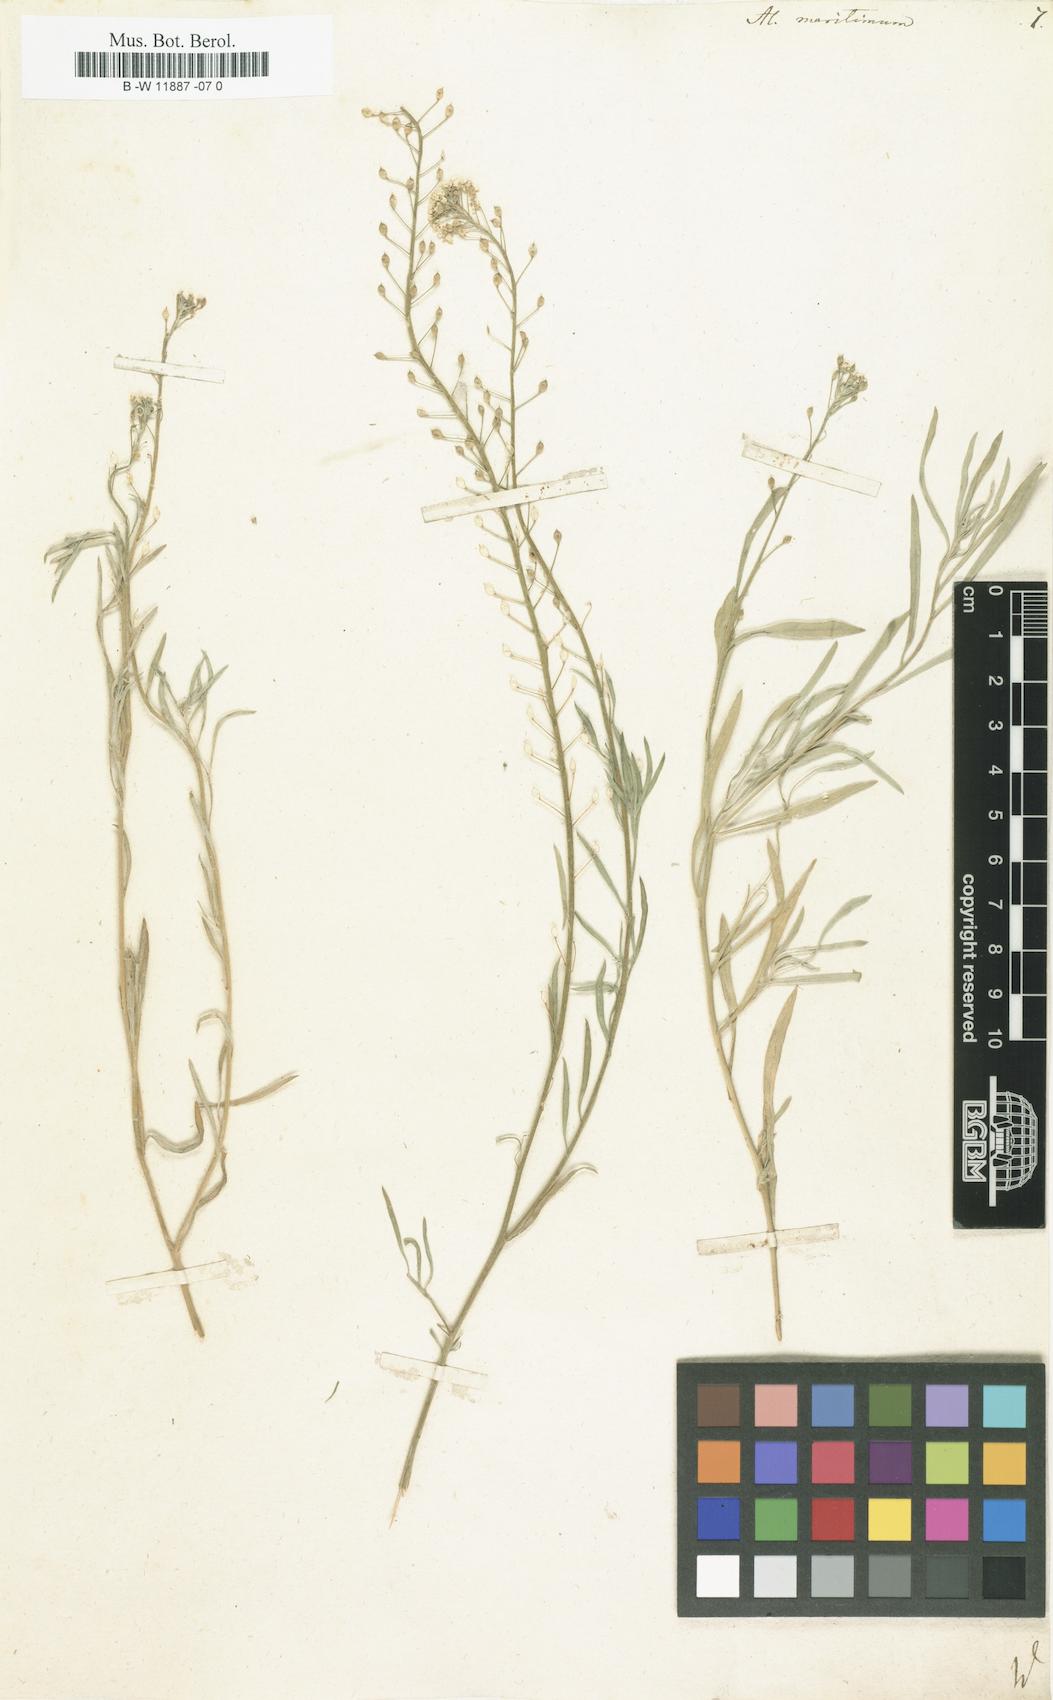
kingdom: Plantae
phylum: Tracheophyta
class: Magnoliopsida
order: Brassicales
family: Brassicaceae
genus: Lobularia
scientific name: Lobularia maritima
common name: Sweet alison
